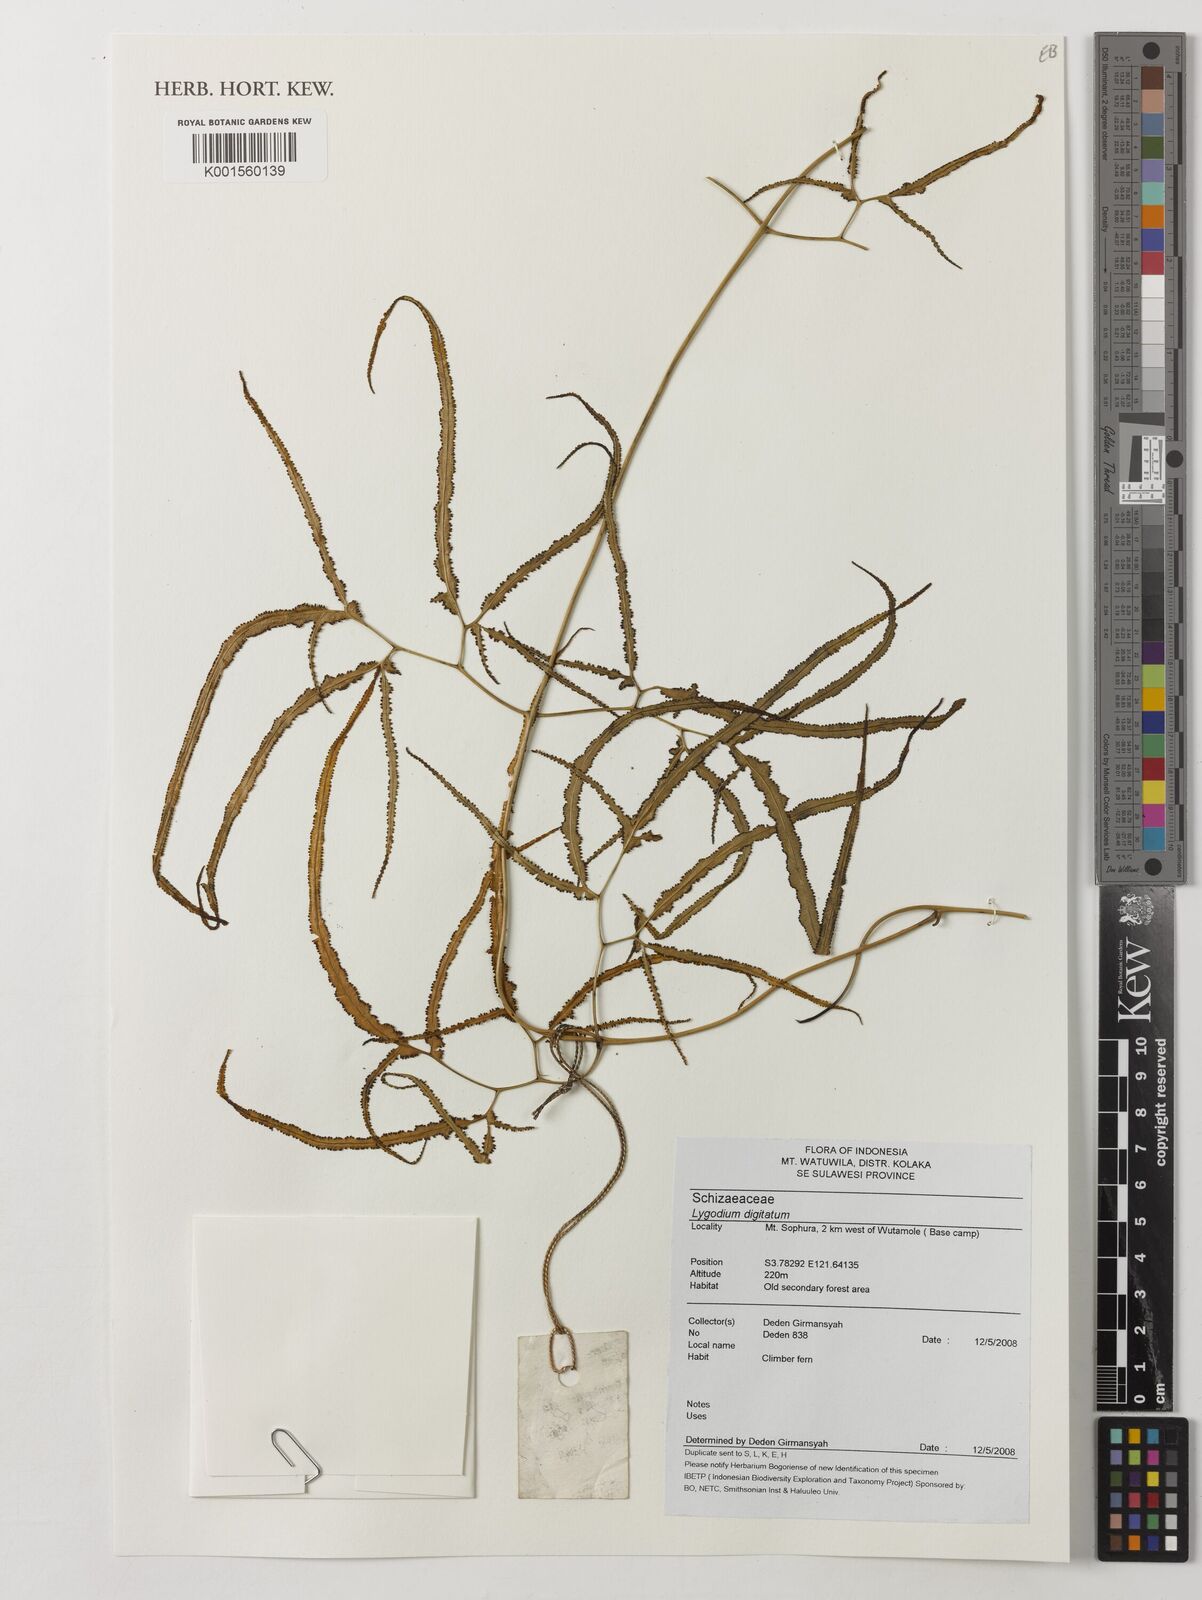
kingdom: Plantae
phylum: Tracheophyta
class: Polypodiopsida
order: Schizaeales
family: Lygodiaceae
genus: Lygodium
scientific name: Lygodium
